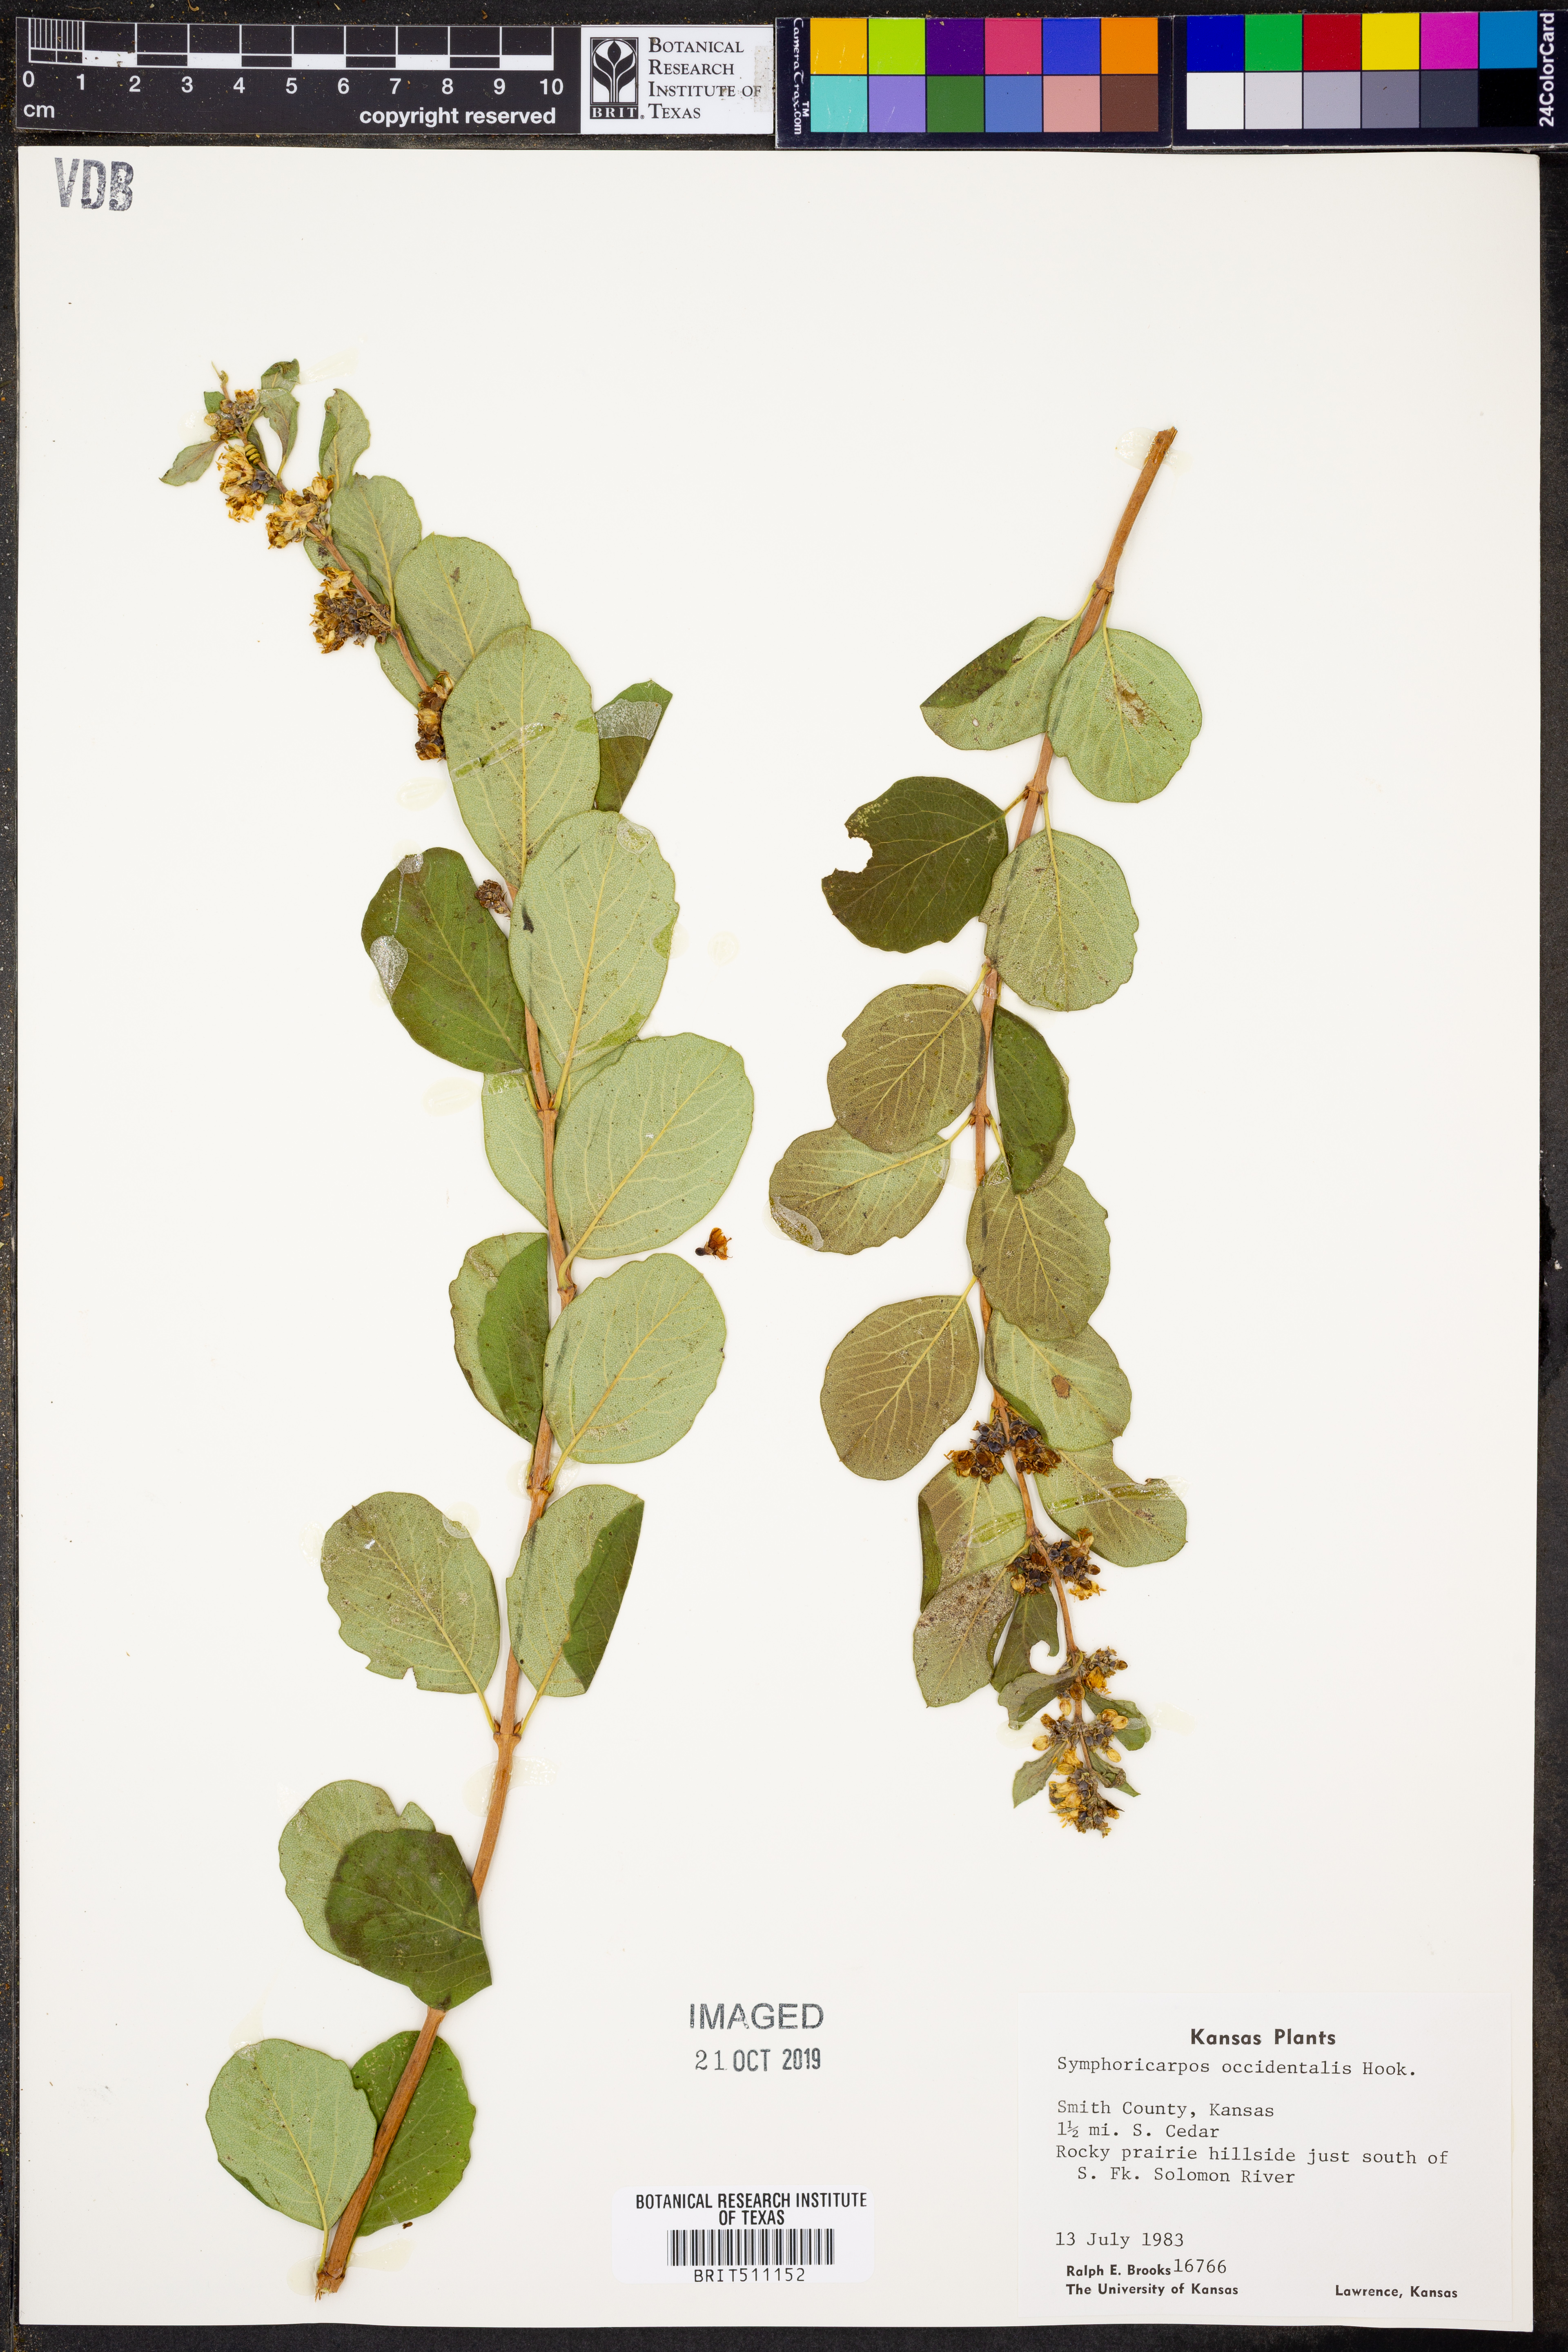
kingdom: Plantae
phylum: Tracheophyta
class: Magnoliopsida
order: Dipsacales
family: Caprifoliaceae
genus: Symphoricarpos
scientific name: Symphoricarpos occidentalis
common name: Wolfberry
